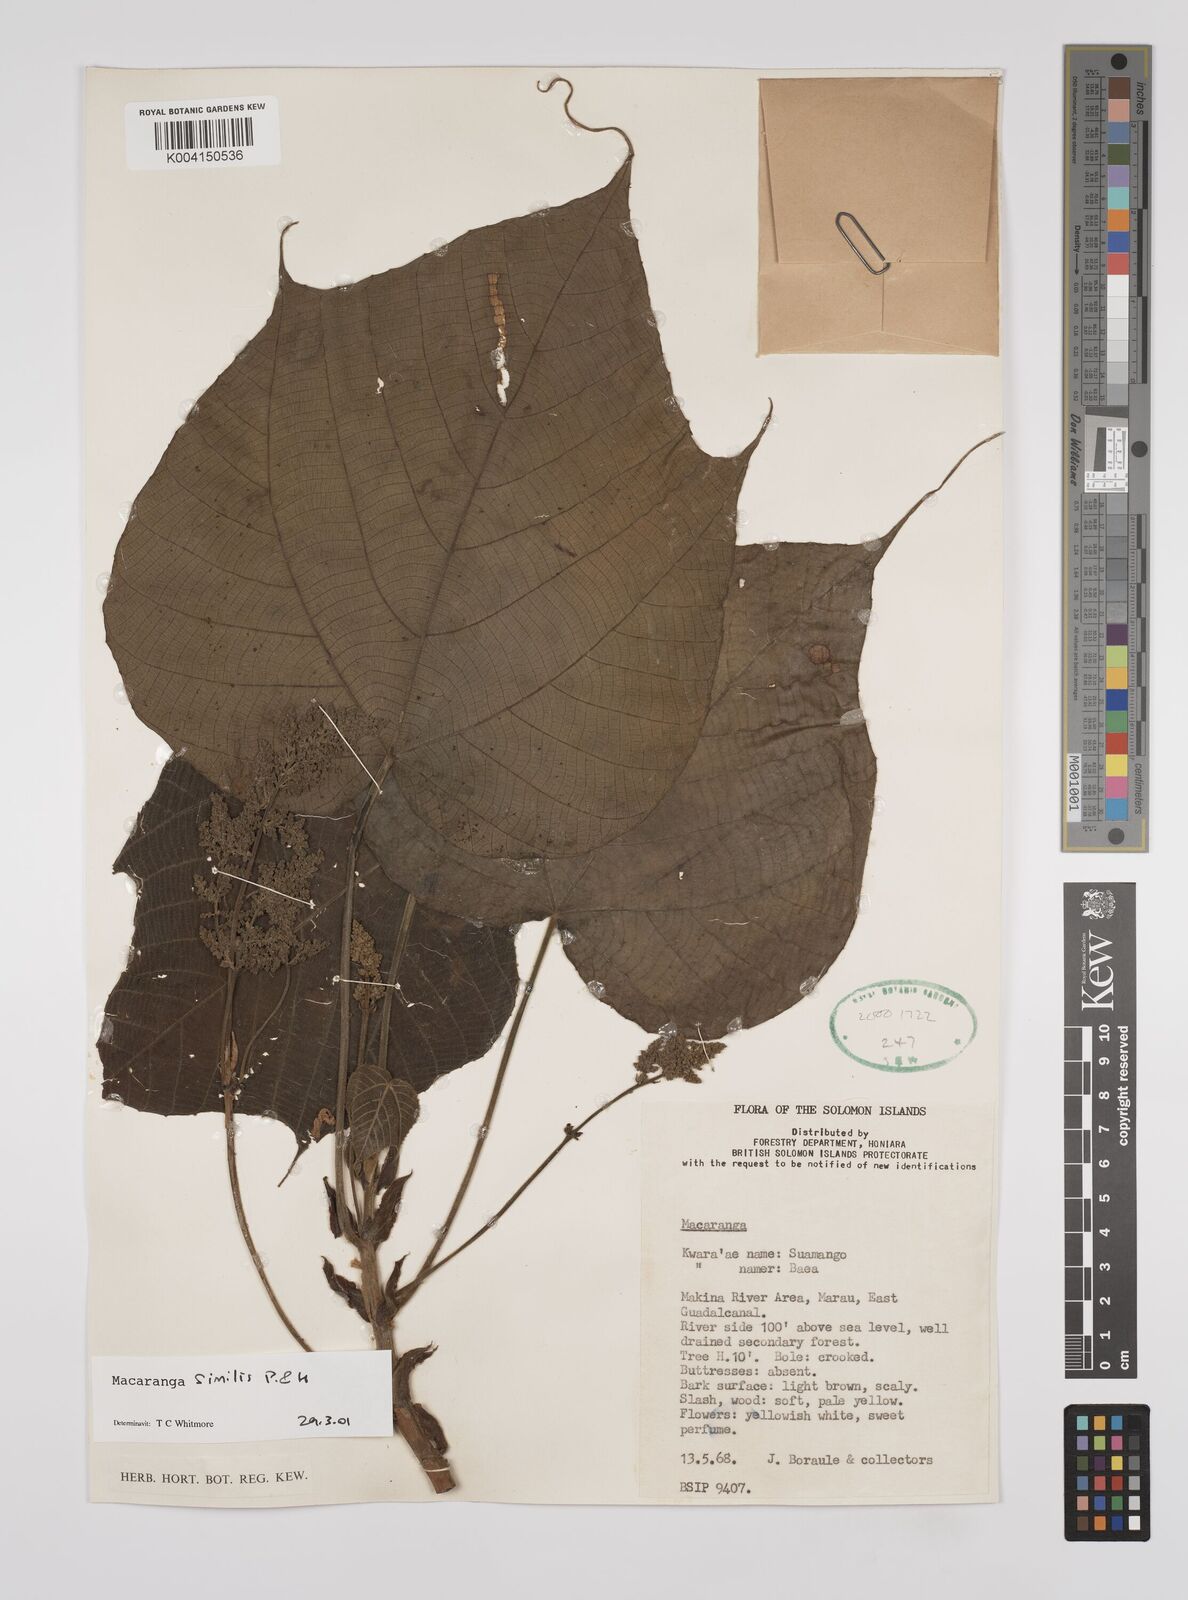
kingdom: Plantae
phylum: Tracheophyta
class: Magnoliopsida
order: Malpighiales
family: Euphorbiaceae
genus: Macaranga
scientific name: Macaranga similis
